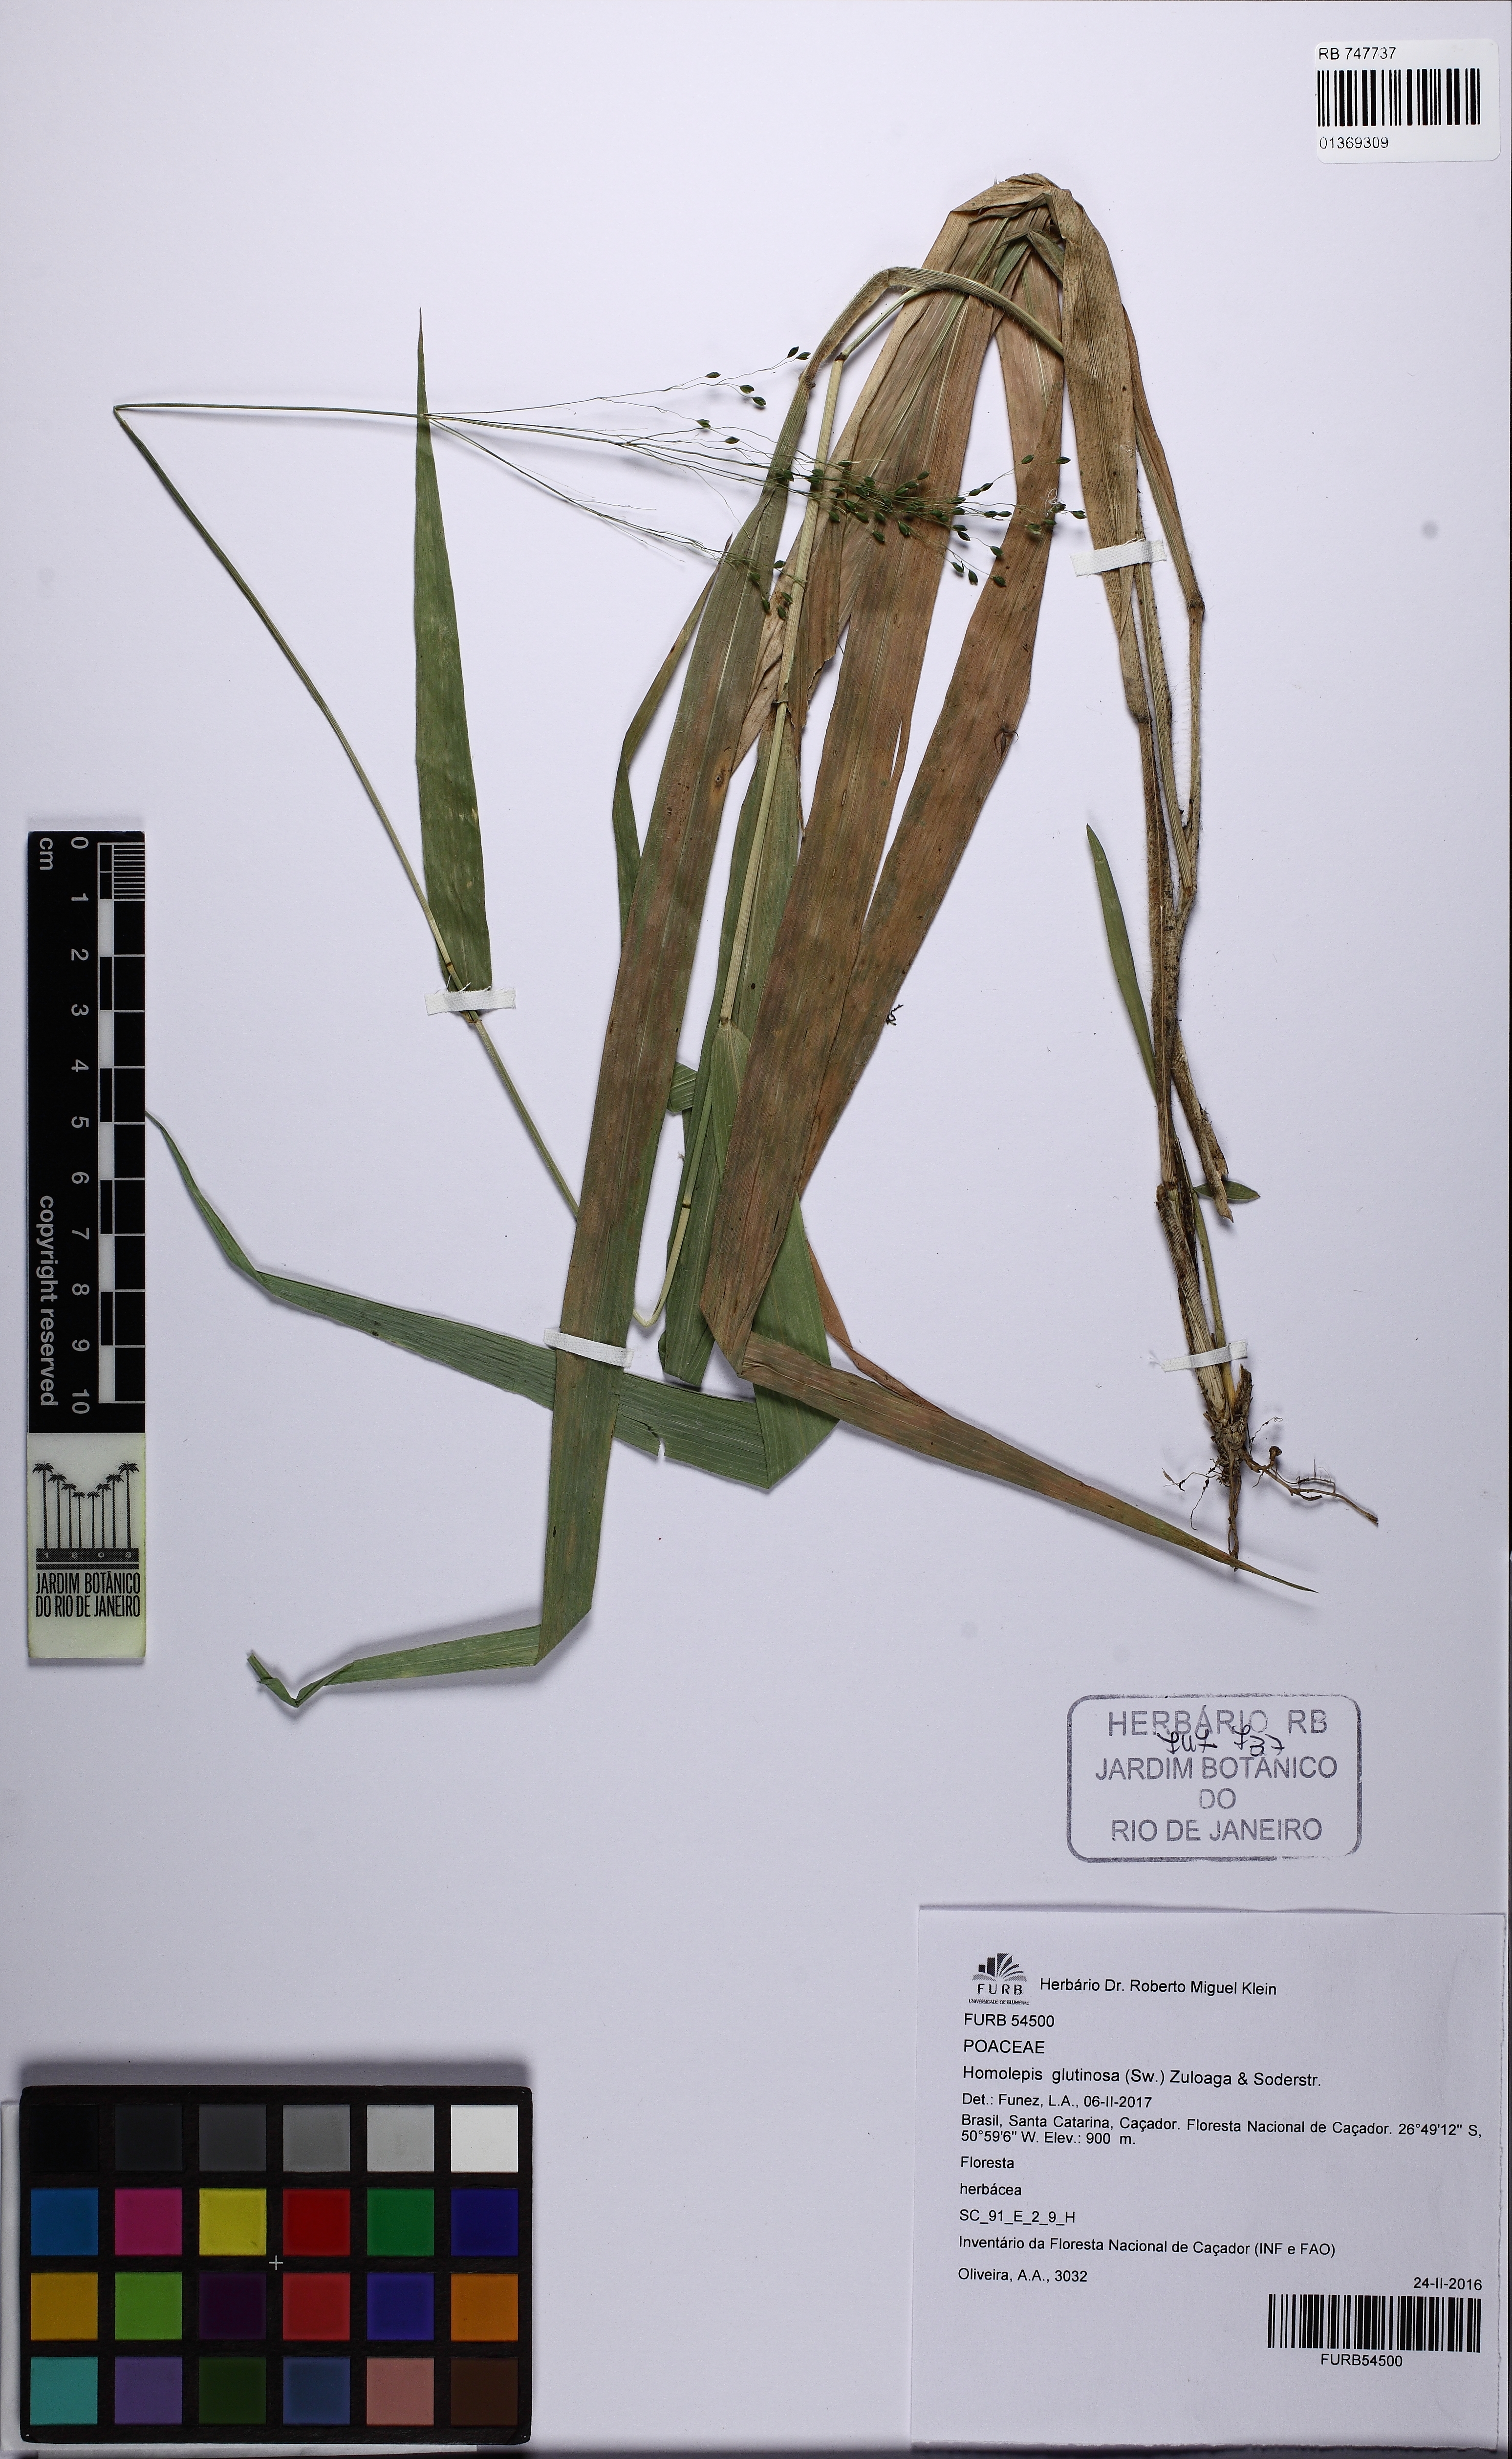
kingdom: Plantae
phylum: Tracheophyta
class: Liliopsida
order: Poales
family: Poaceae
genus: Homolepis
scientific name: Homolepis glutinosa
